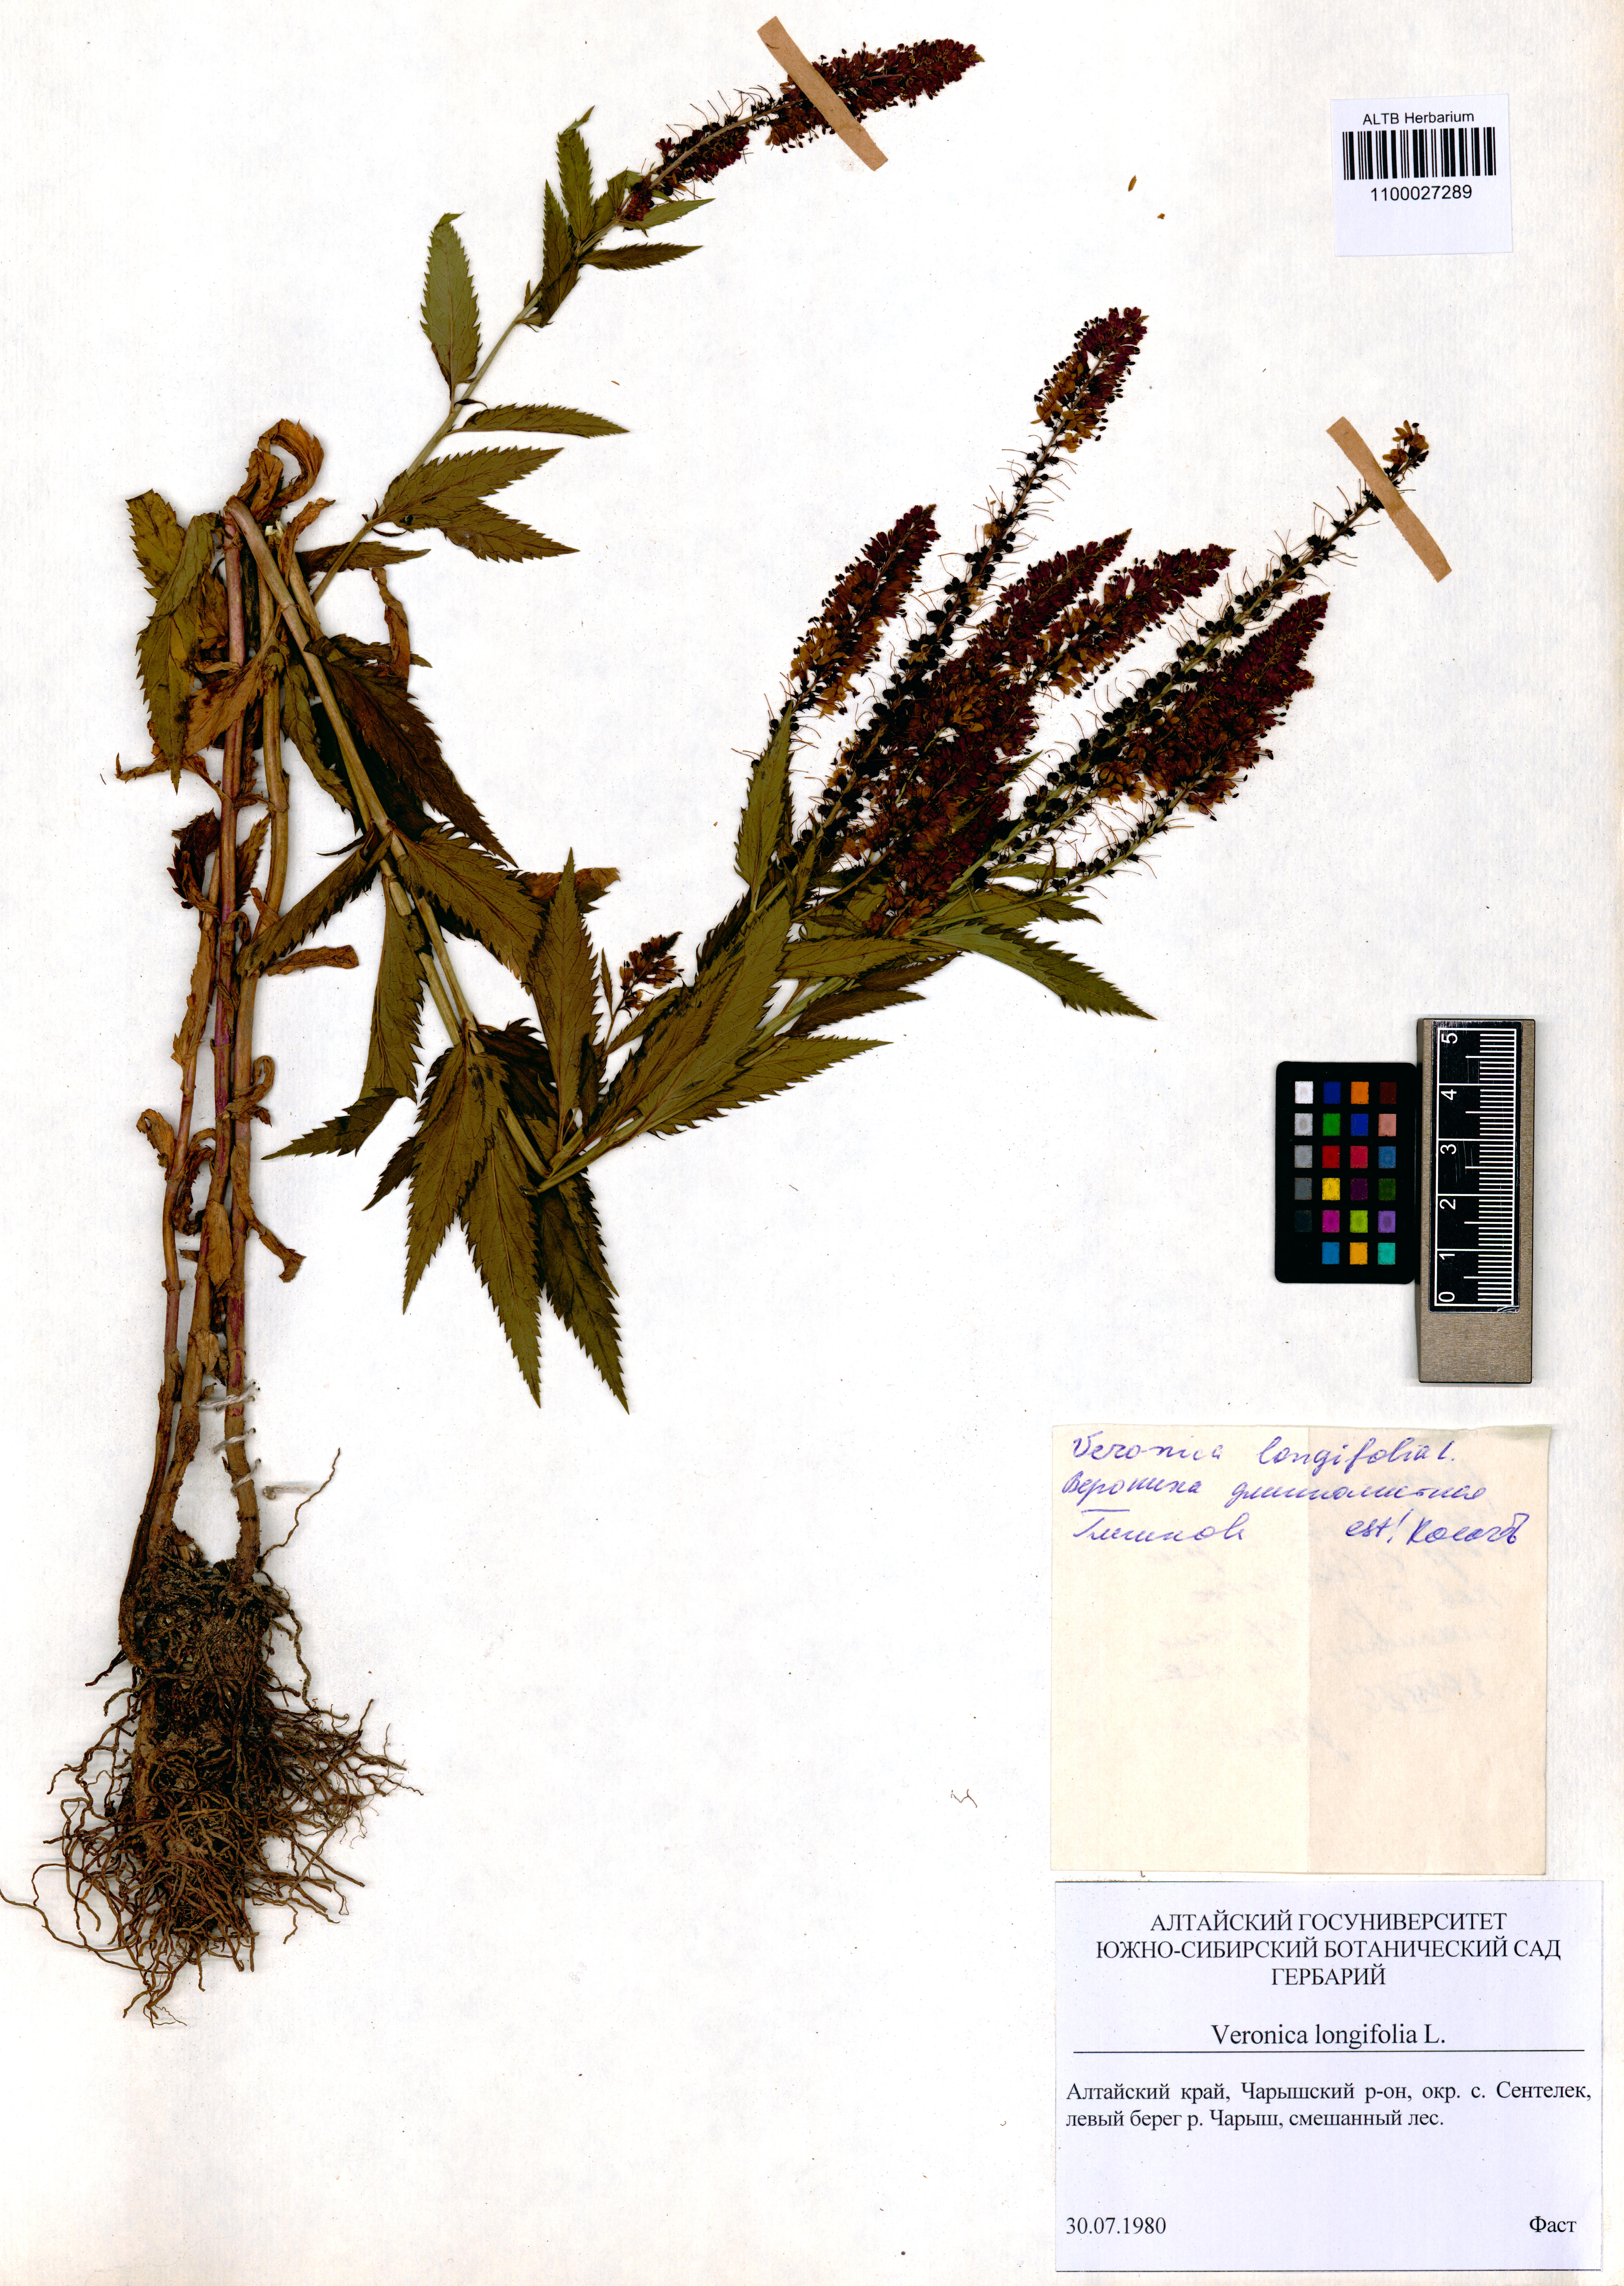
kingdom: Plantae
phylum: Tracheophyta
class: Magnoliopsida
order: Lamiales
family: Plantaginaceae
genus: Veronica
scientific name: Veronica longifolia
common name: Garden speedwell
